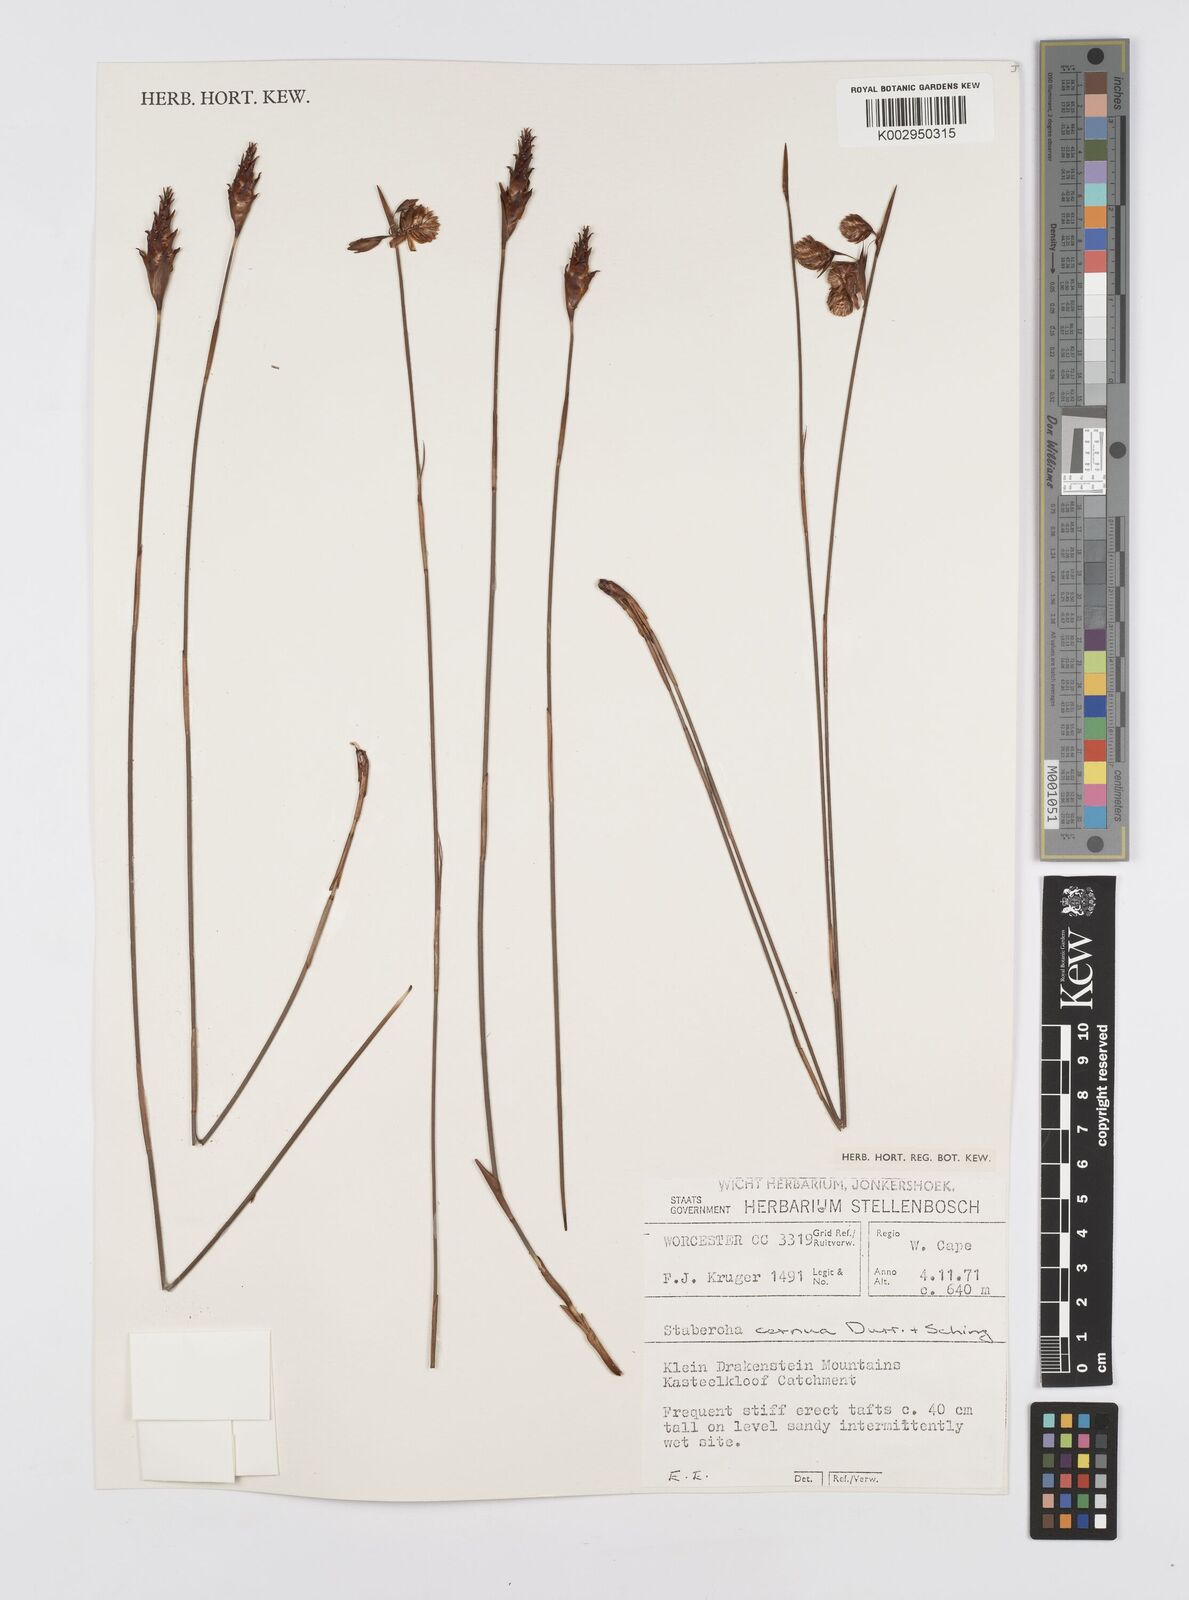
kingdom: Plantae
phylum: Tracheophyta
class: Liliopsida
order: Poales
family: Restionaceae
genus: Staberoha
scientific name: Staberoha cernua
